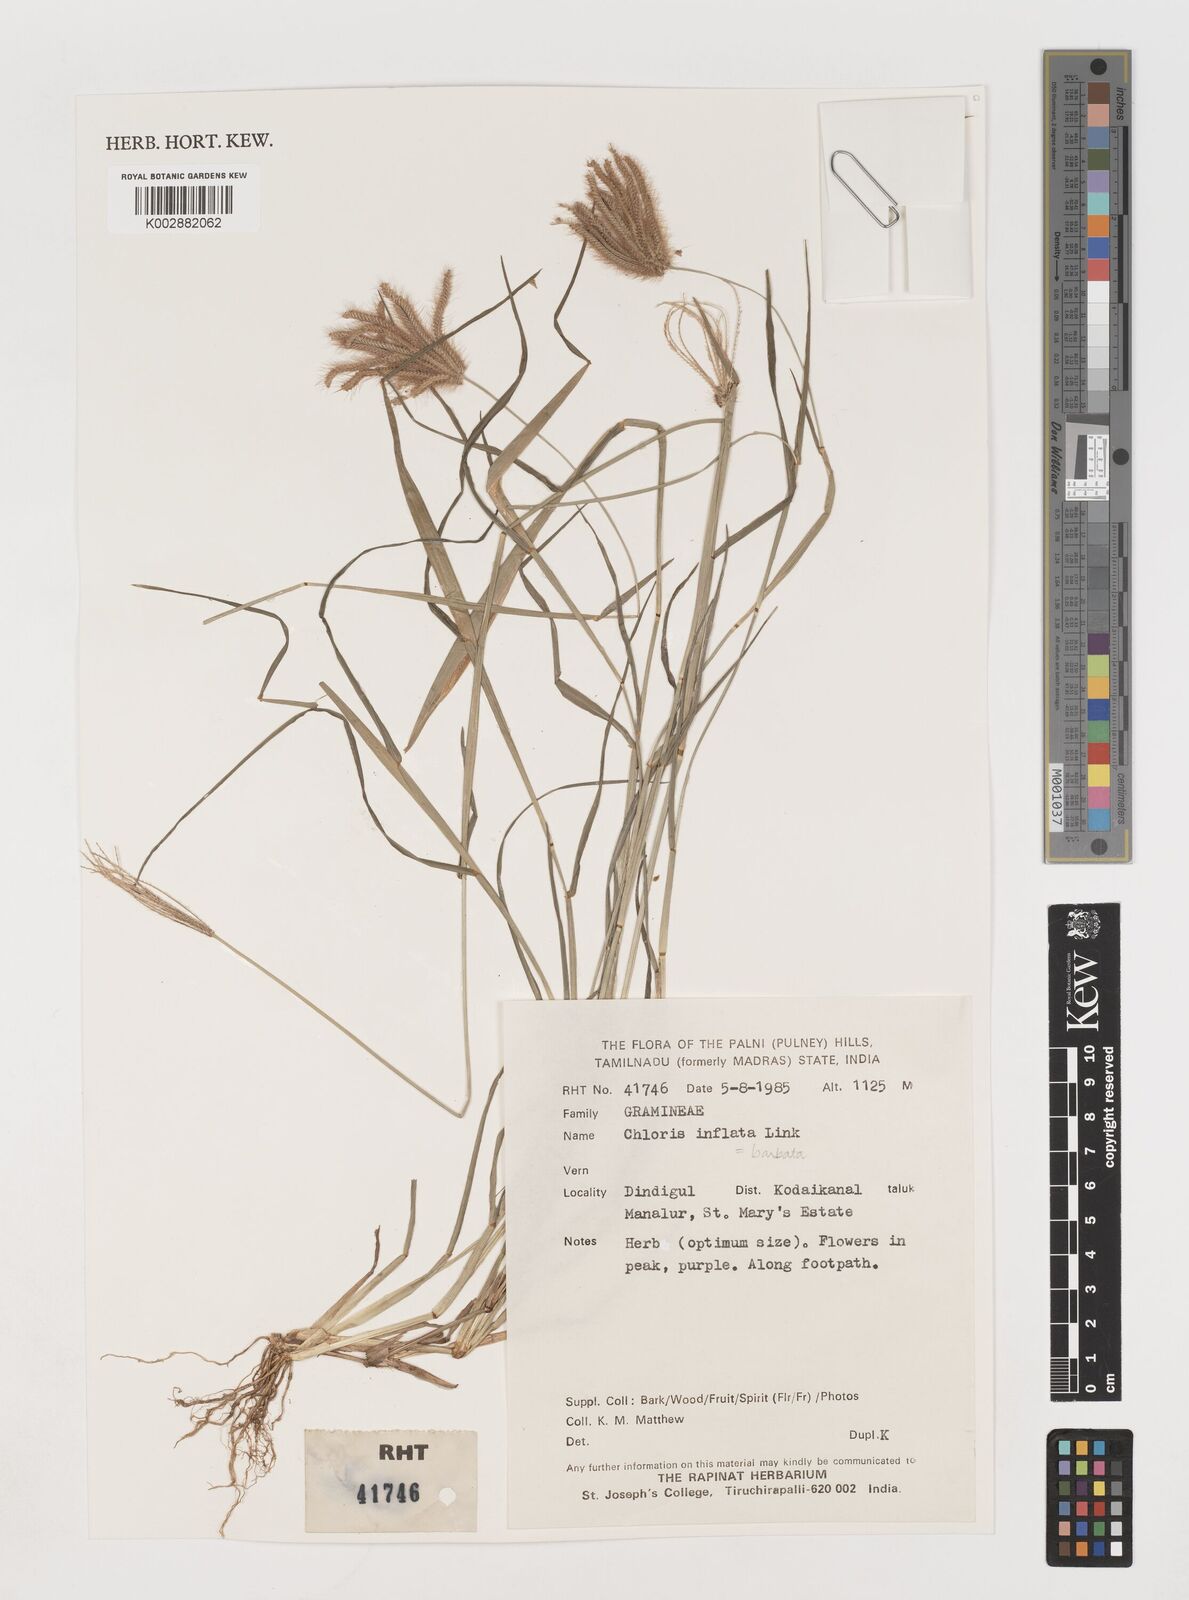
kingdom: Plantae
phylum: Tracheophyta
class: Liliopsida
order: Poales
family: Poaceae
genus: Chloris
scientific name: Chloris barbata
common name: Swollen fingergrass
